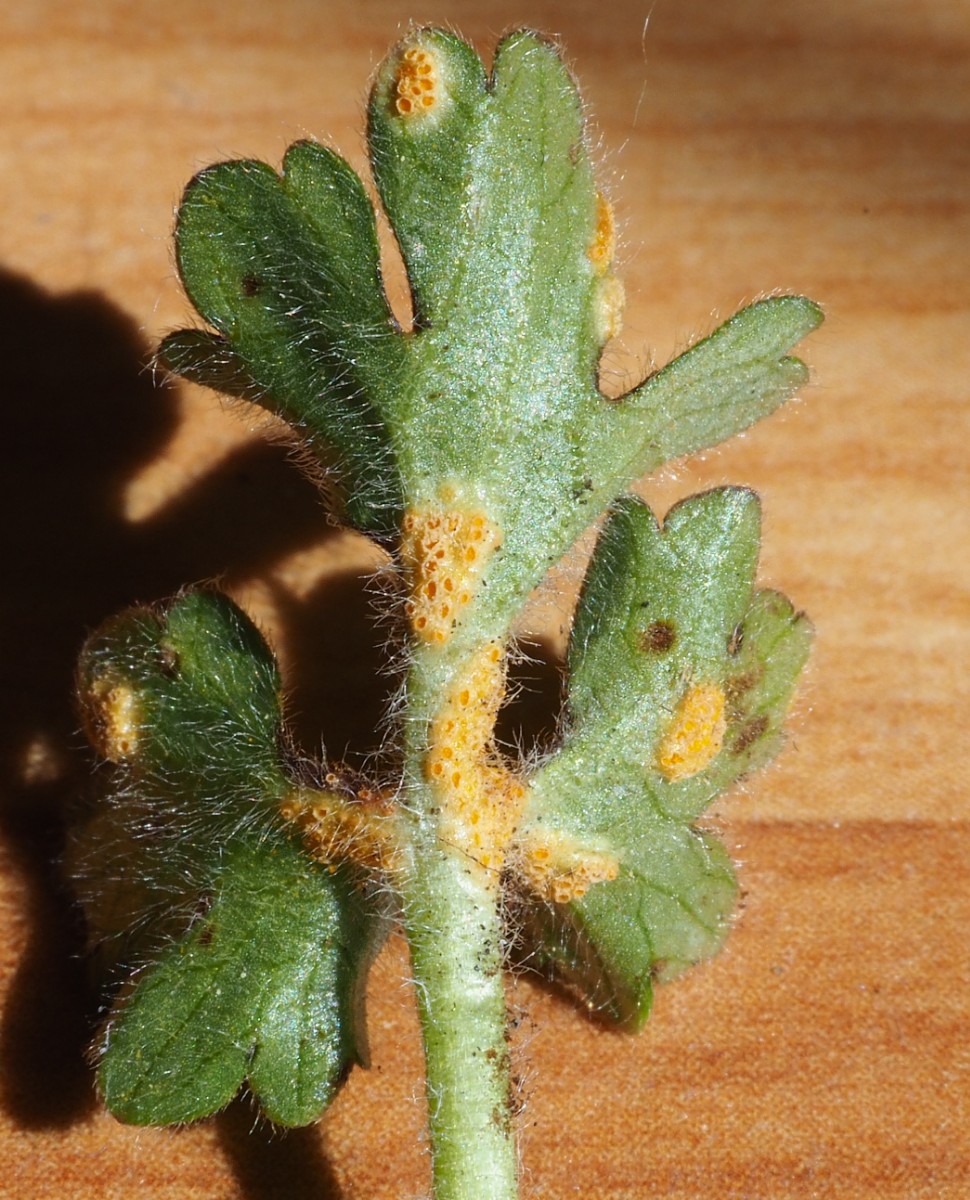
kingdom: Fungi
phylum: Basidiomycota
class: Pucciniomycetes
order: Pucciniales
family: Pucciniaceae
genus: Puccinia
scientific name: Puccinia recondita
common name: Brown rust of wheat
